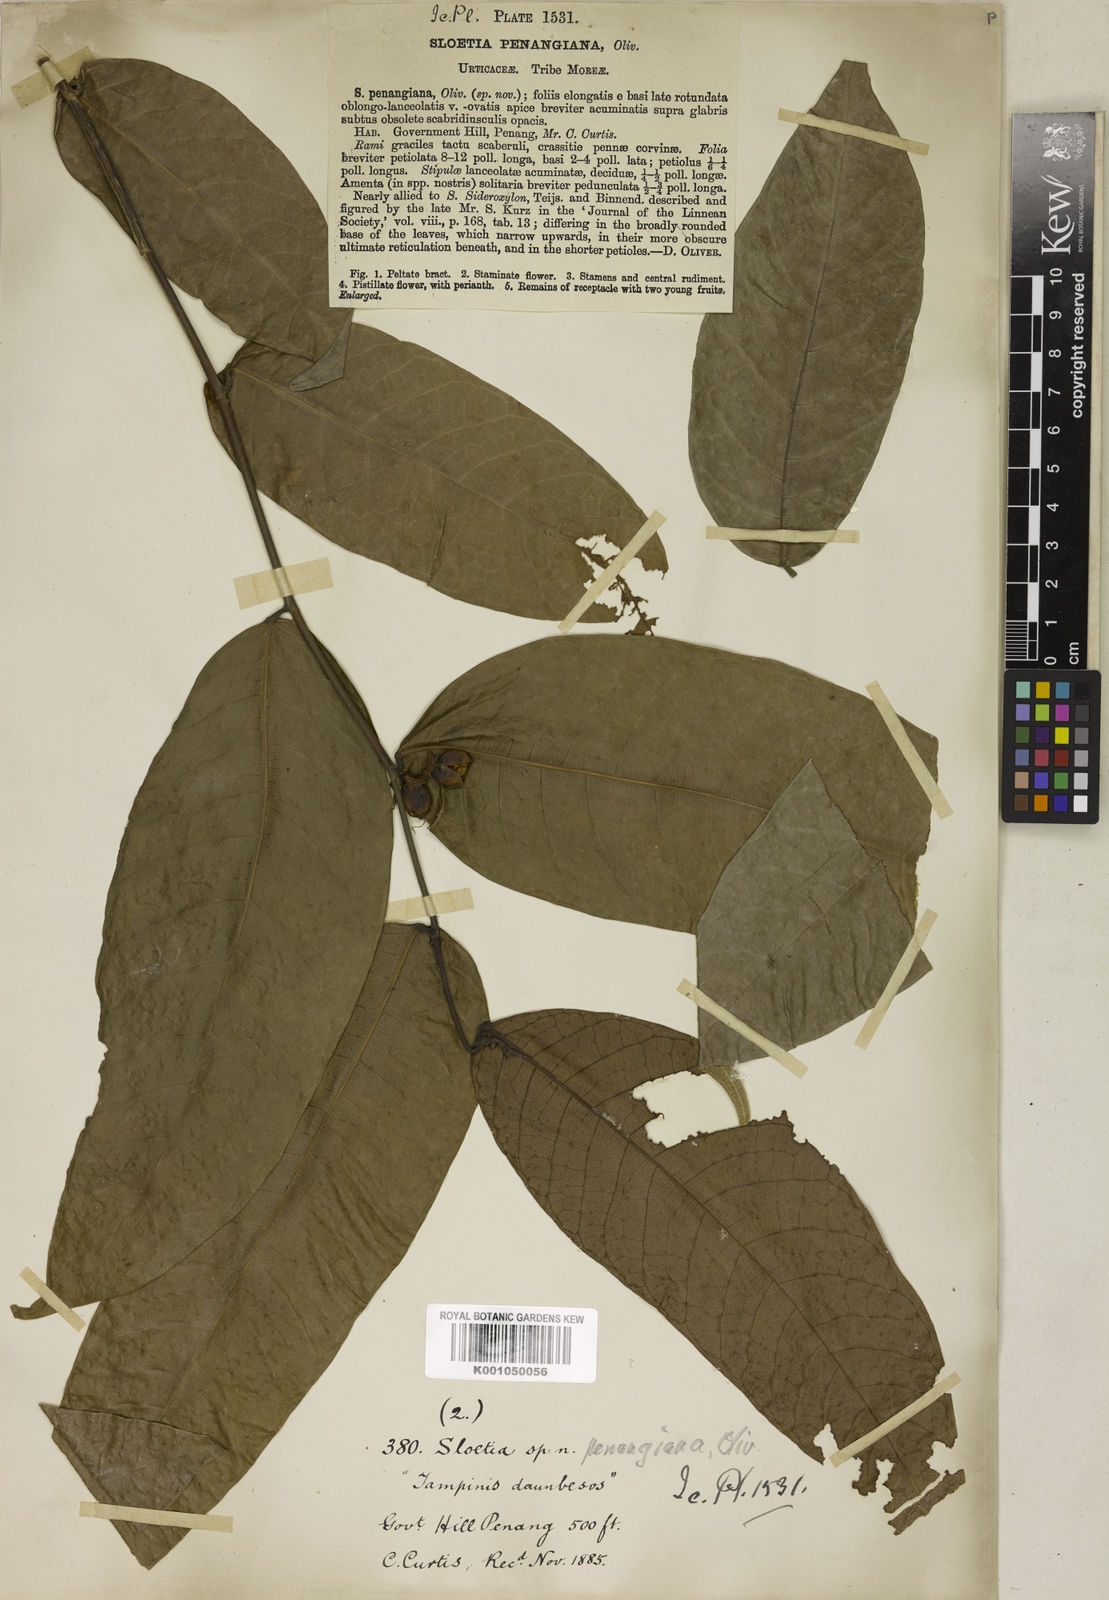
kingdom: Plantae
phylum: Tracheophyta
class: Magnoliopsida
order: Rosales
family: Moraceae
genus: Sloetia
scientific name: Sloetia elongata
